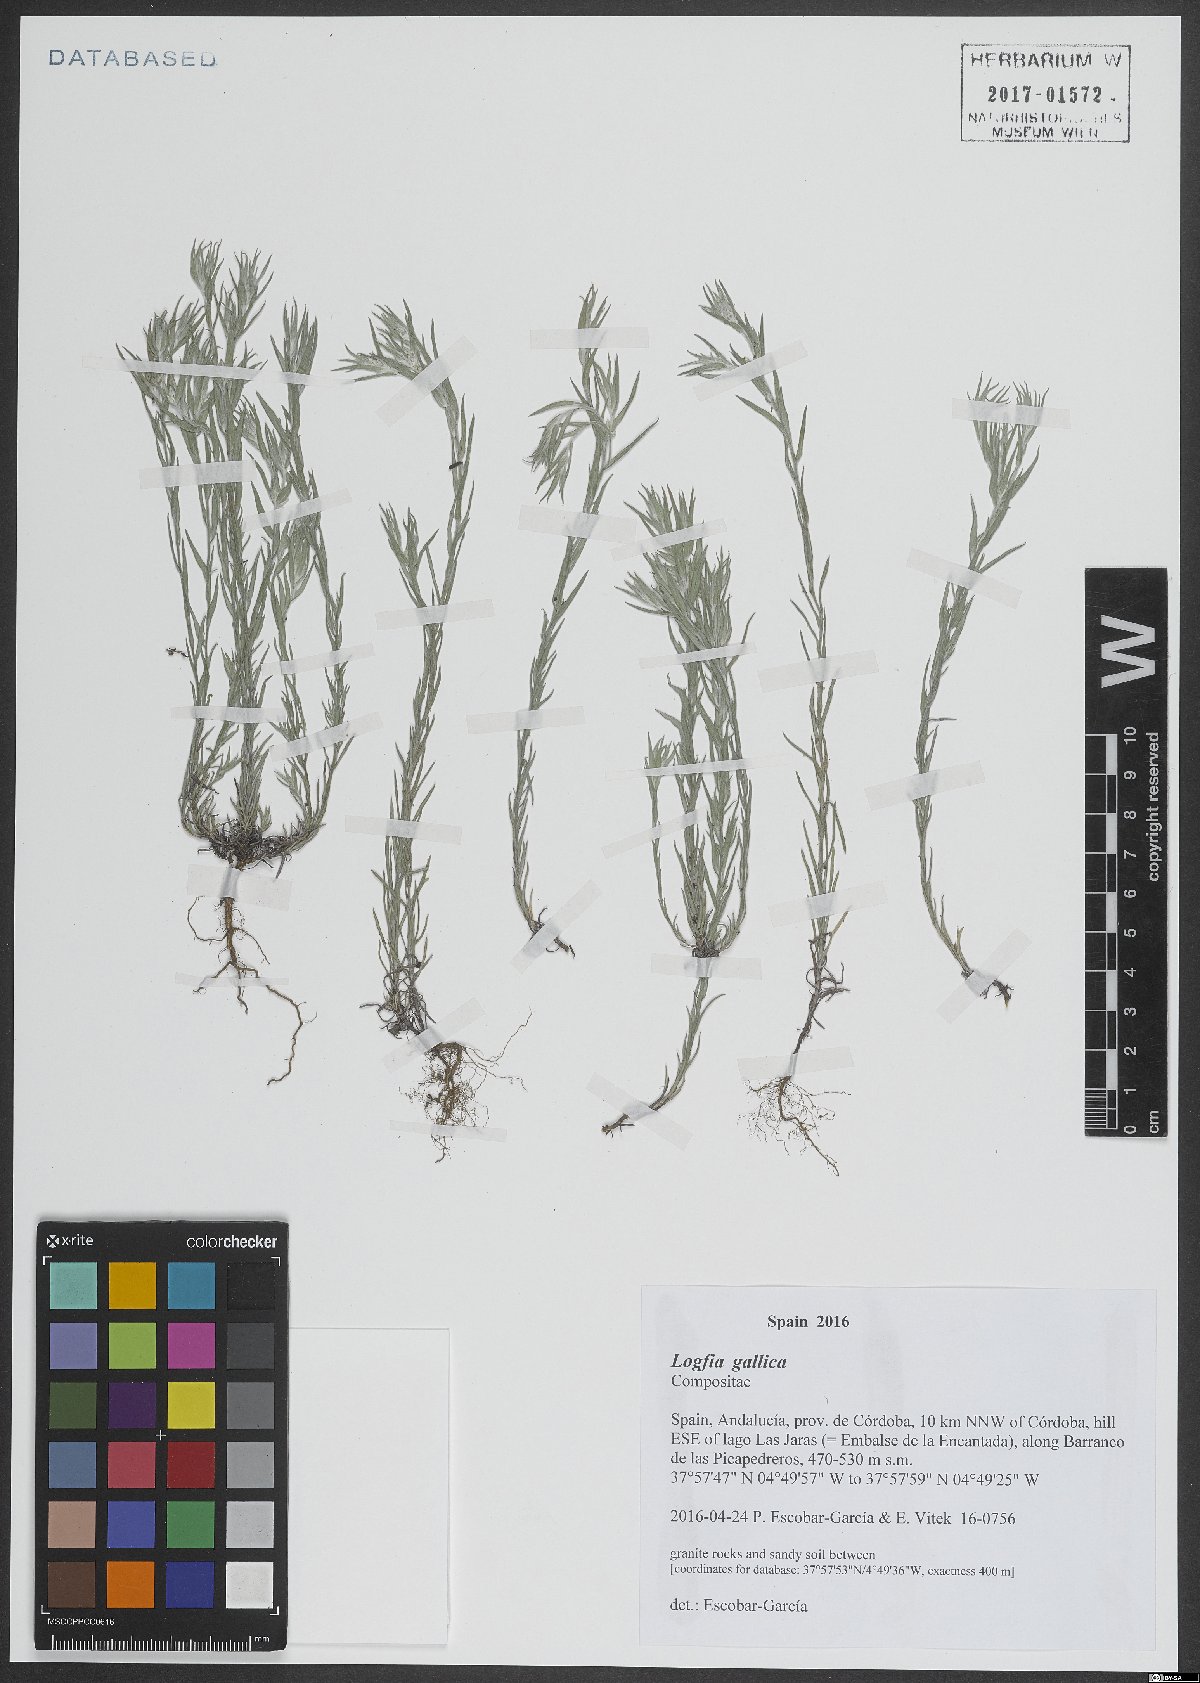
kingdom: Plantae
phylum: Tracheophyta
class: Magnoliopsida
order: Asterales
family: Asteraceae
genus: Logfia
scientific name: Logfia gallica
